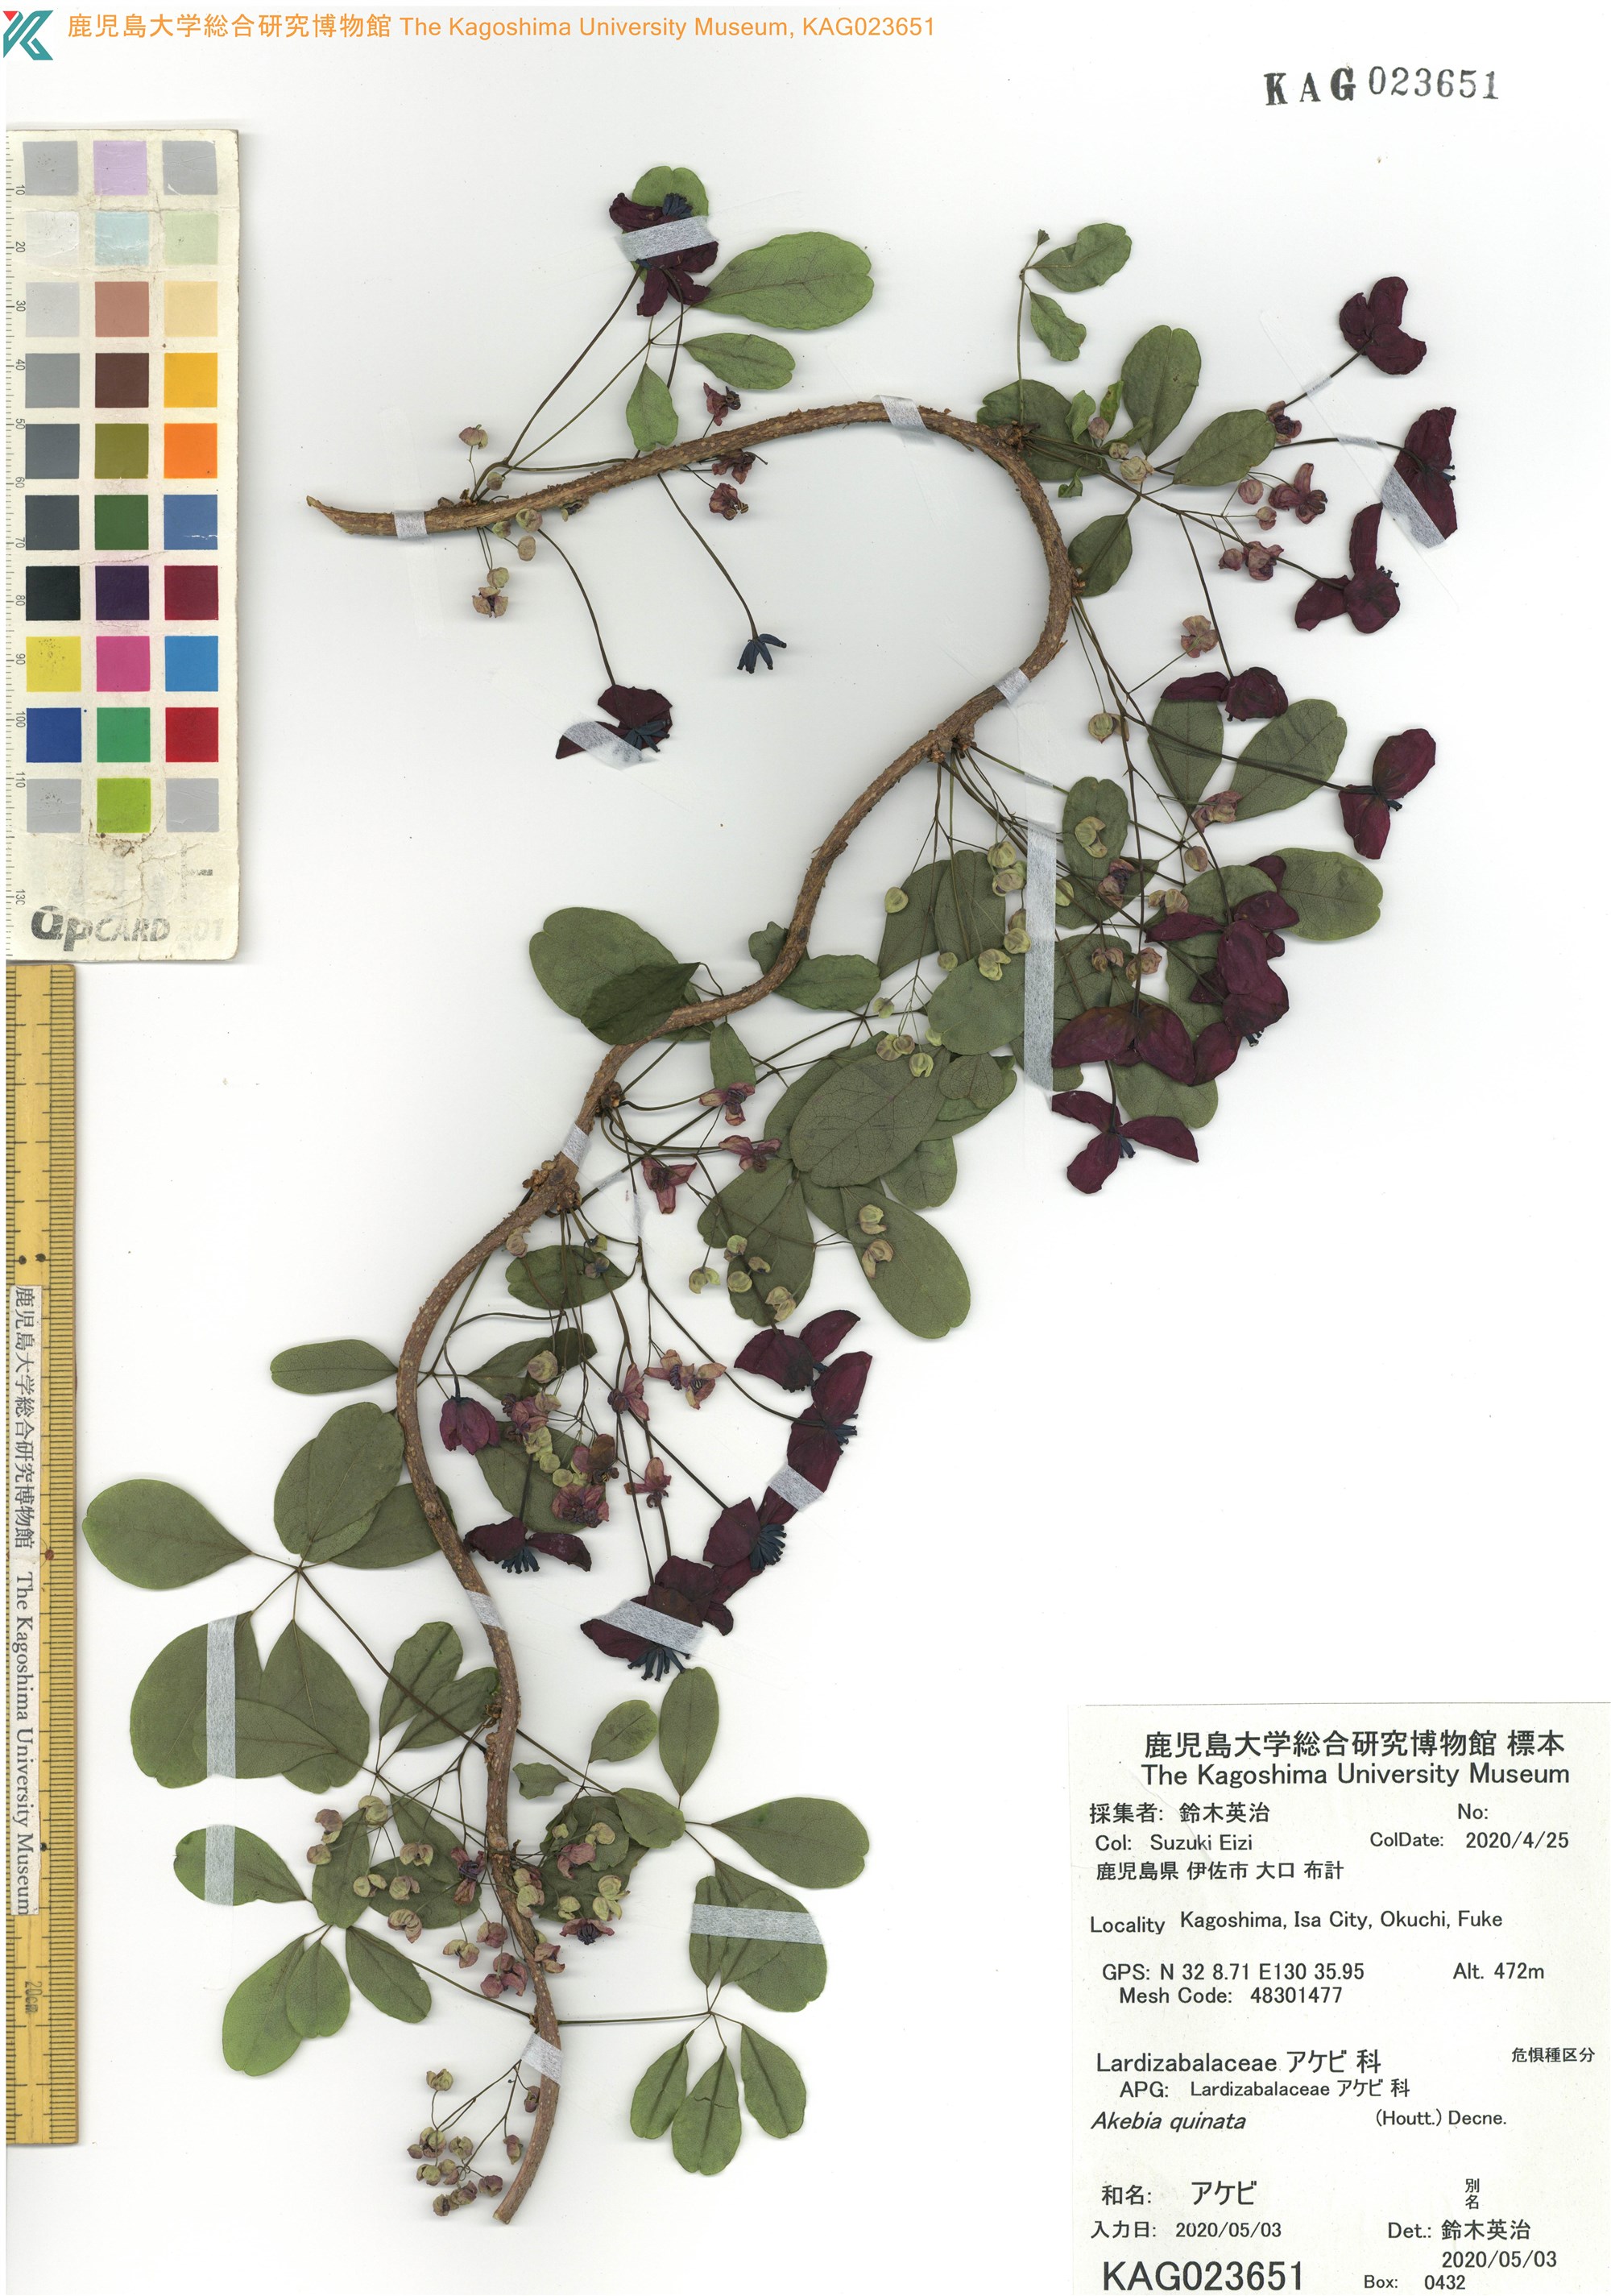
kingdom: Plantae
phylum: Tracheophyta
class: Magnoliopsida
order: Ranunculales
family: Lardizabalaceae
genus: Akebia
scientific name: Akebia quinata
